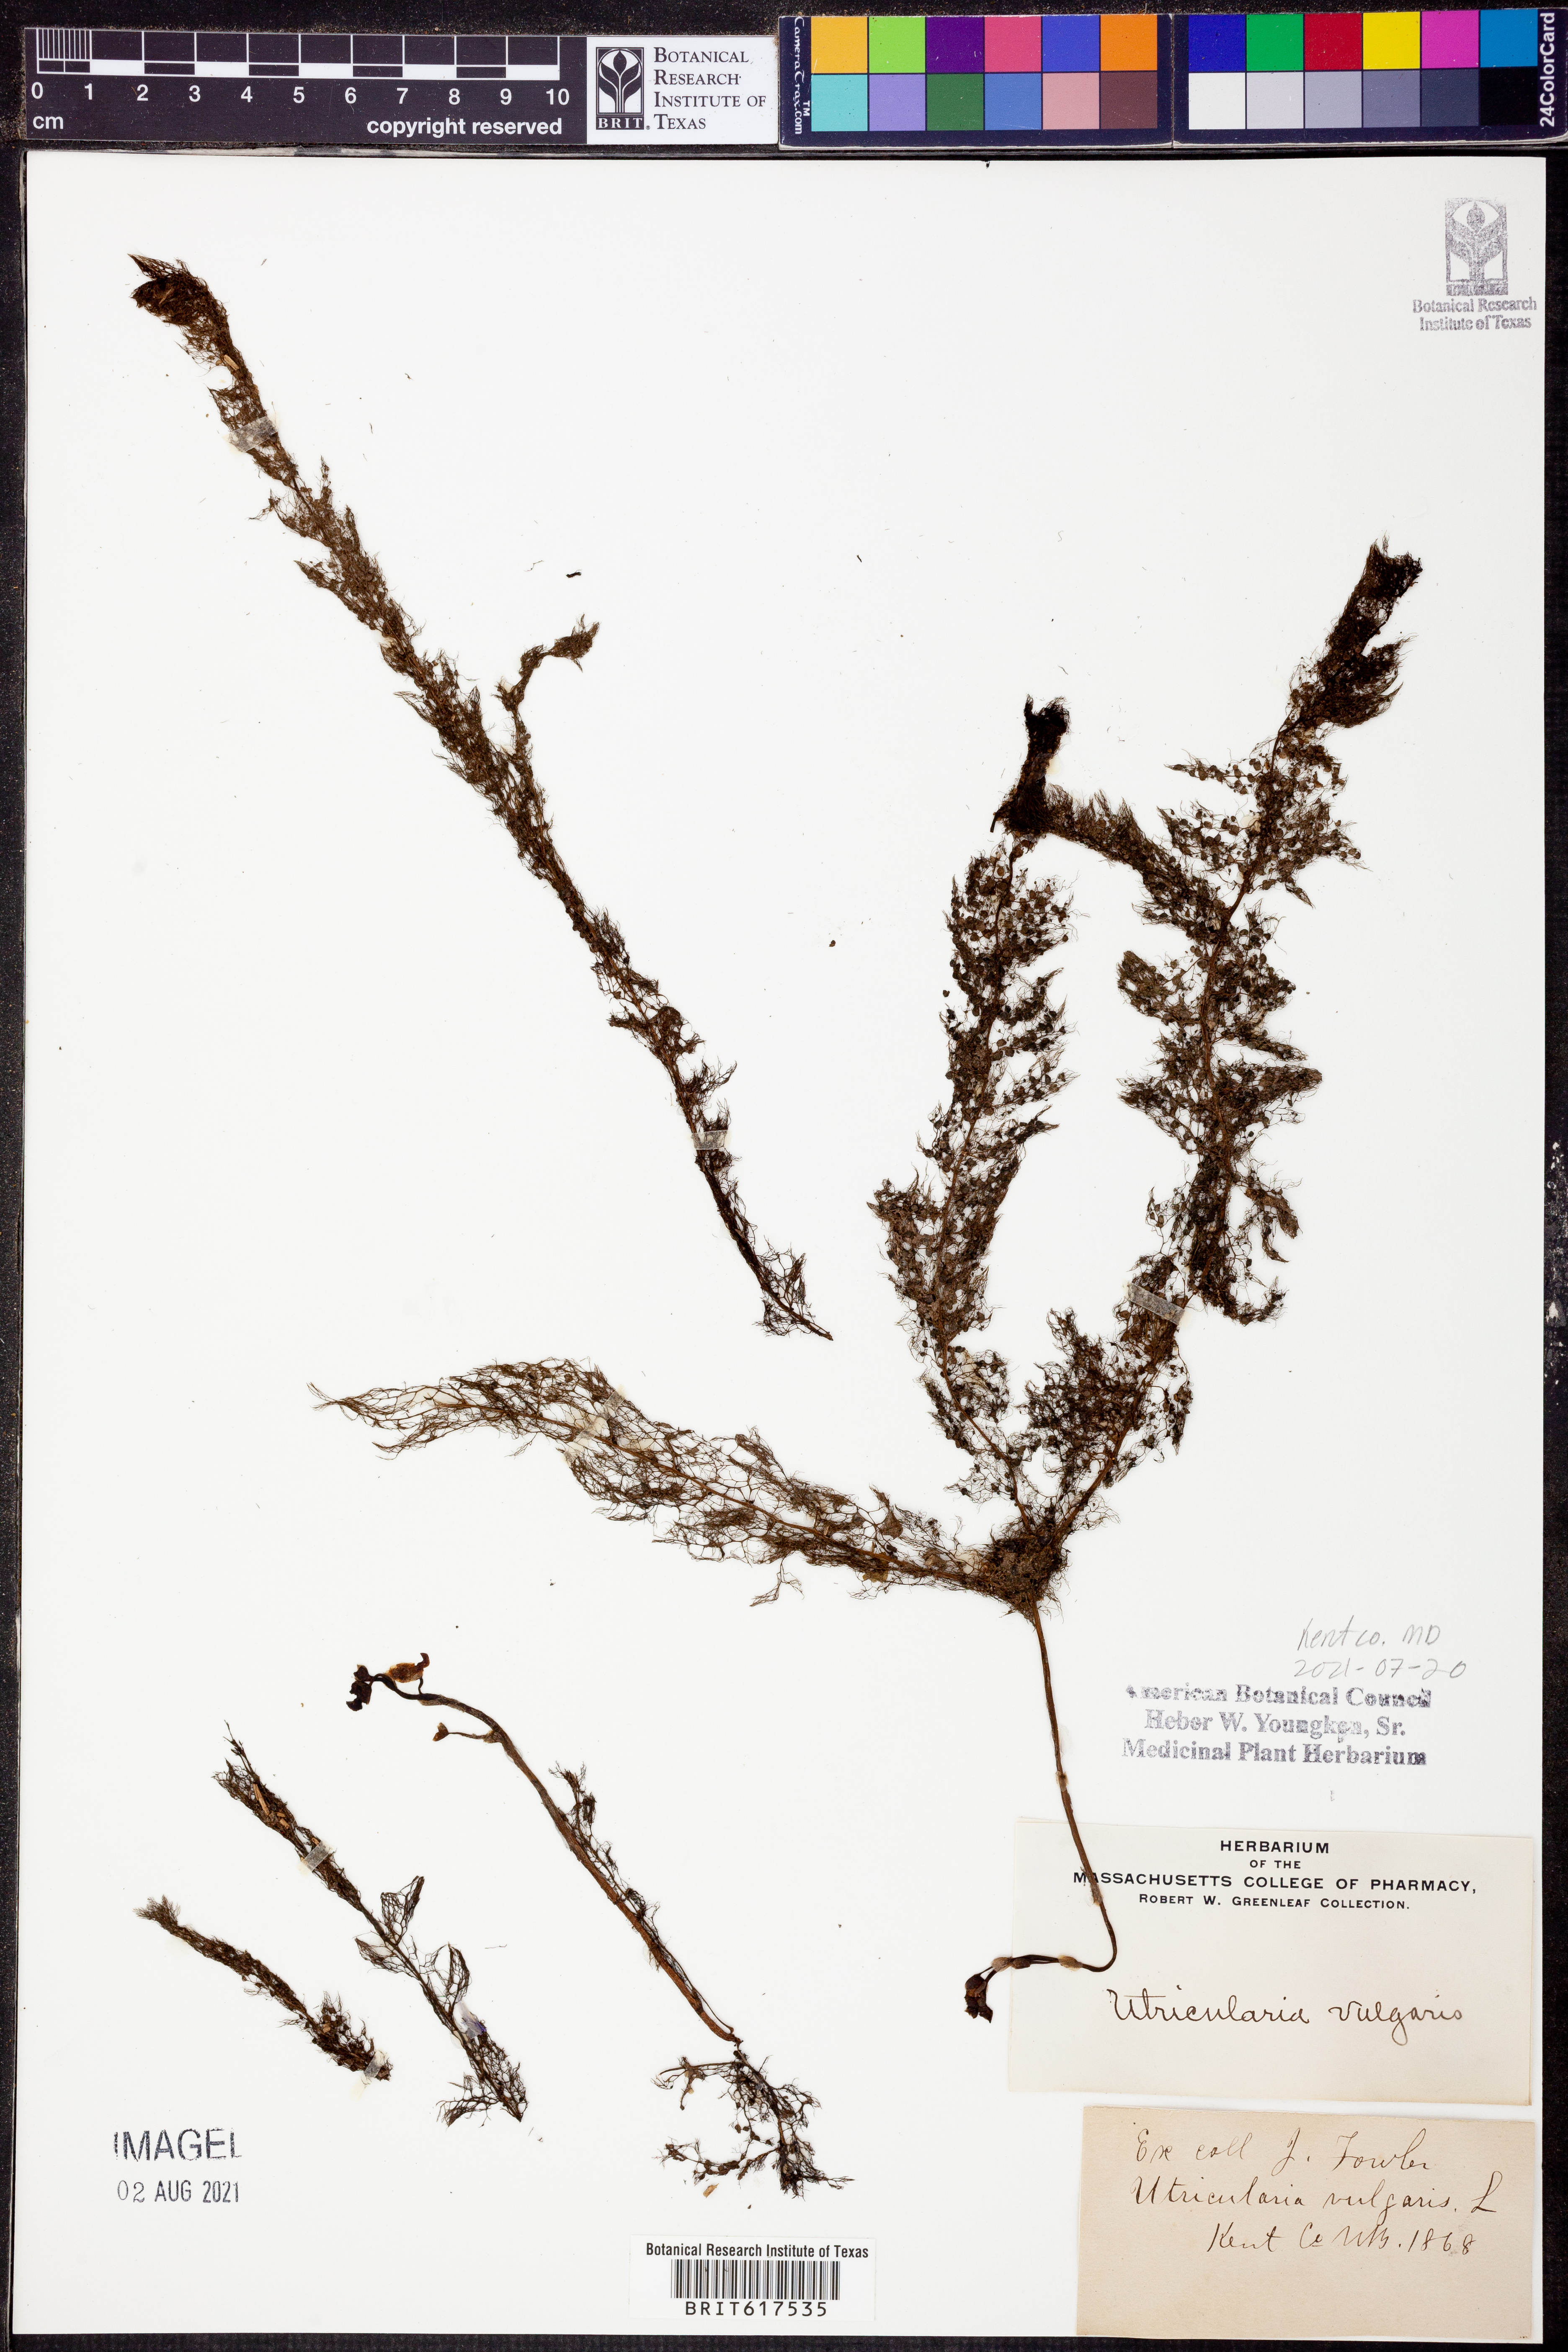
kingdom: Plantae
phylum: Tracheophyta
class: Magnoliopsida
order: Lamiales
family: Lentibulariaceae
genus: Utricularia
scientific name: Utricularia vulgaris
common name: Greater bladderwort
